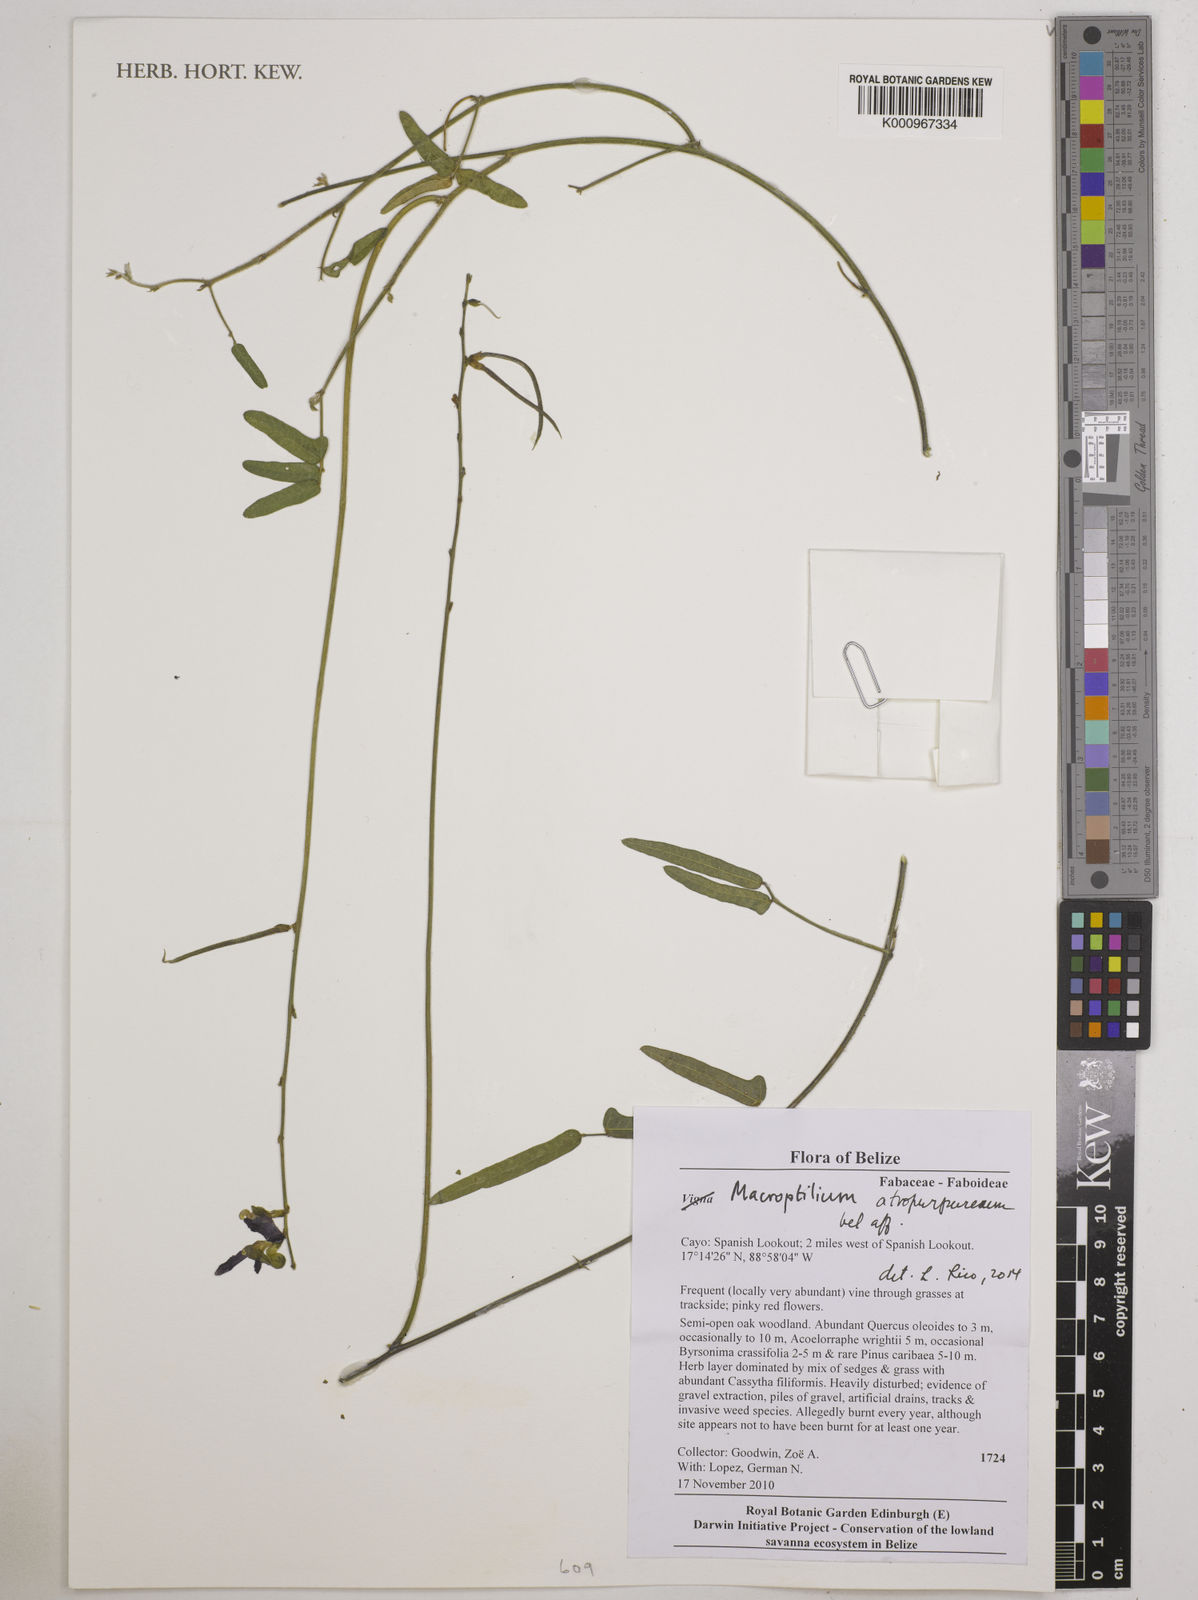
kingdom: Plantae
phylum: Tracheophyta
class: Magnoliopsida
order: Fabales
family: Fabaceae
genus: Macroptilium
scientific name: Macroptilium atropurpureum
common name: Purple bushbean
